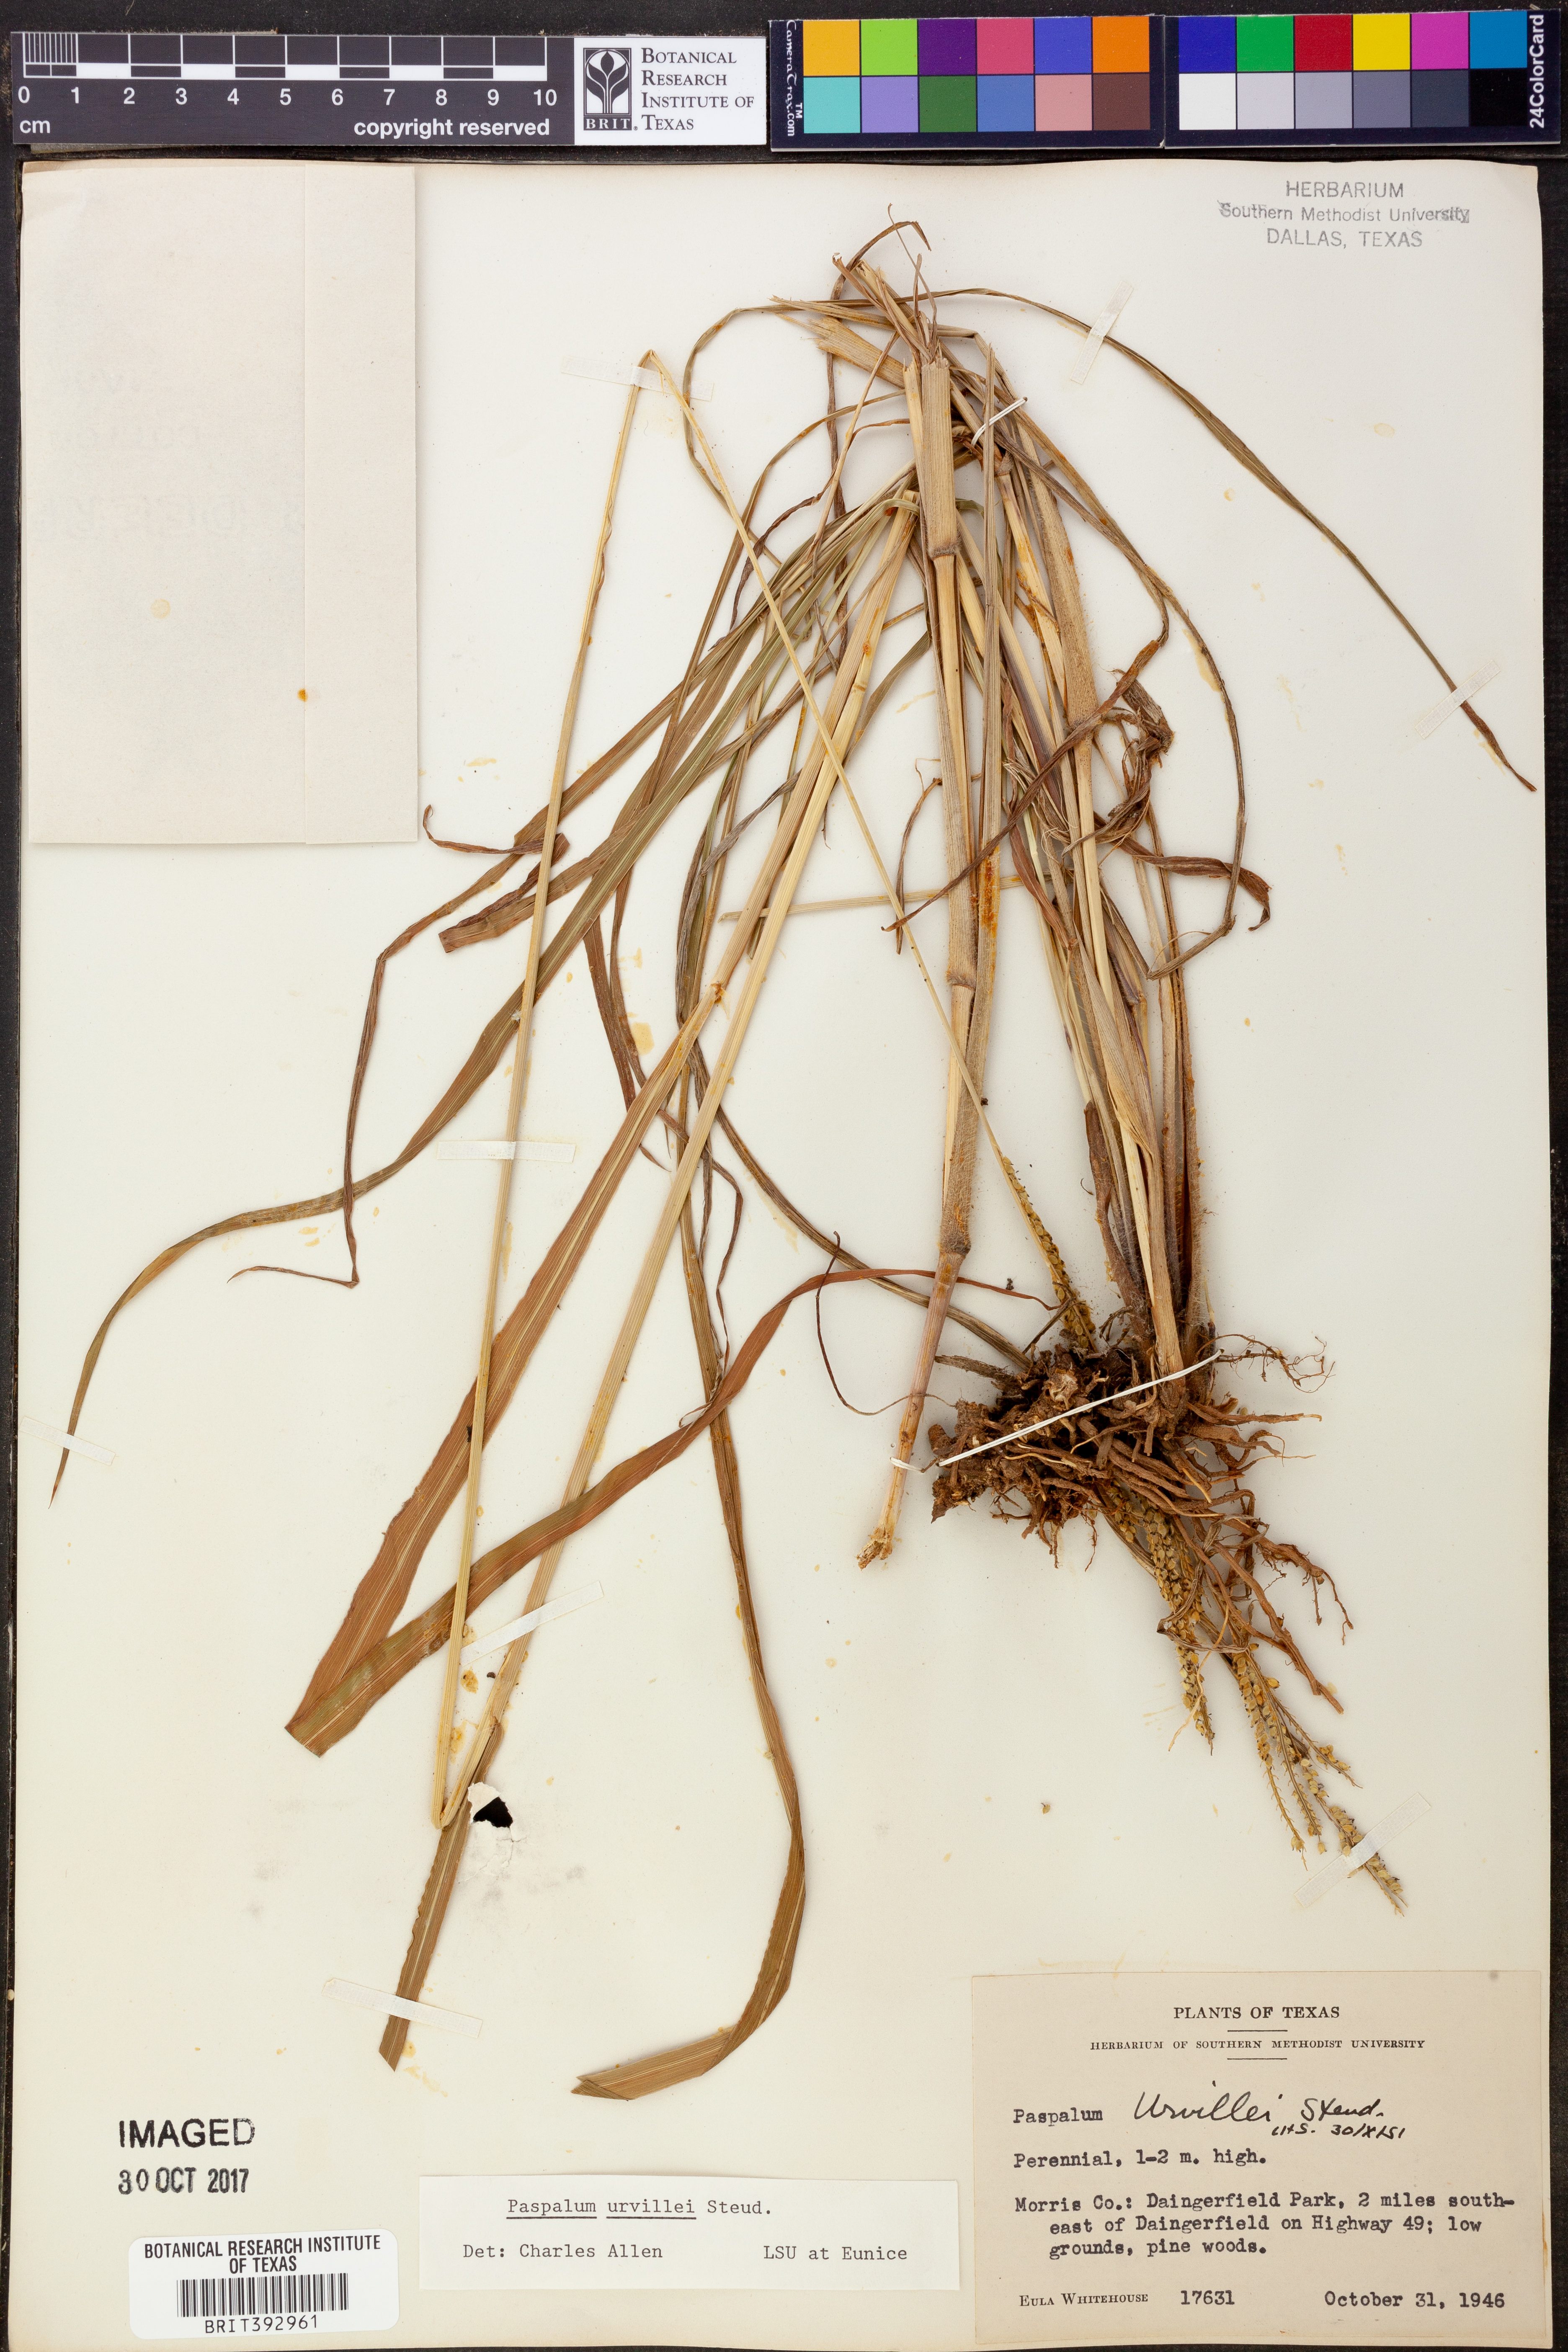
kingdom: Plantae
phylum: Tracheophyta
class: Liliopsida
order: Poales
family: Poaceae
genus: Paspalum
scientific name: Paspalum urvillei
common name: Vasey's grass
